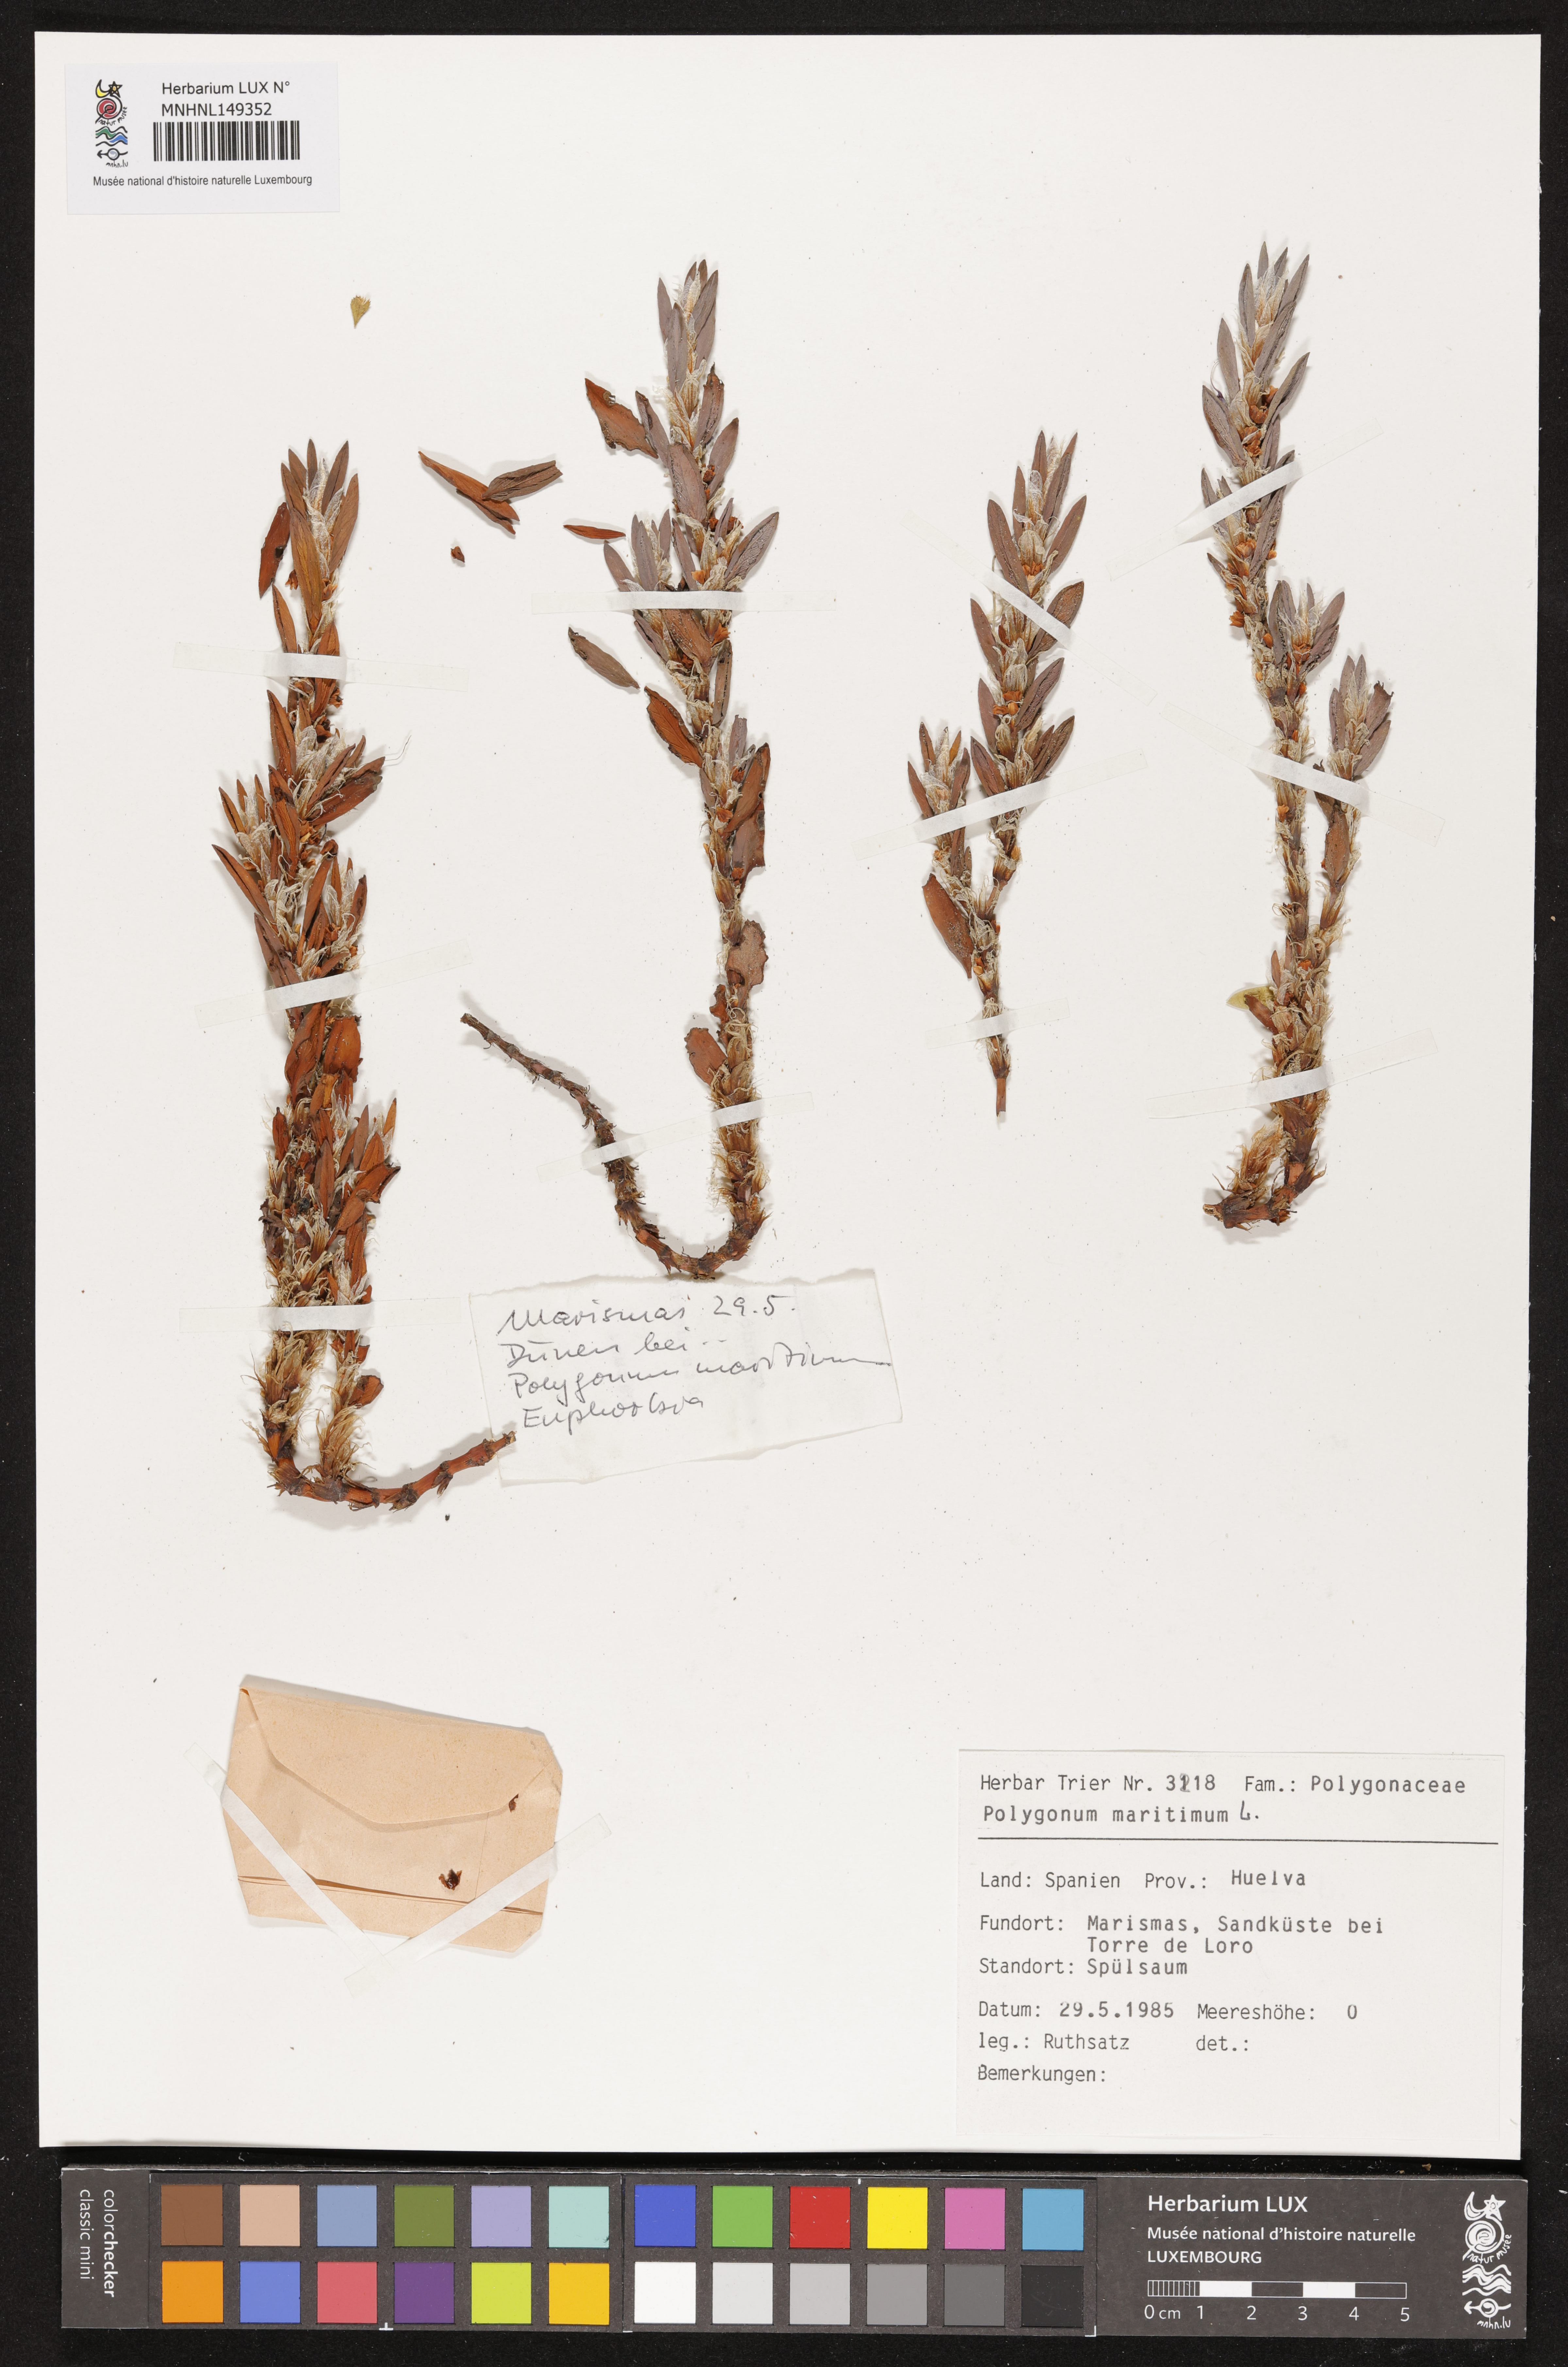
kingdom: Plantae
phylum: Tracheophyta
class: Magnoliopsida
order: Caryophyllales
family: Polygonaceae
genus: Polygonum
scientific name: Polygonum maritimum
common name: Sea knotgrass
